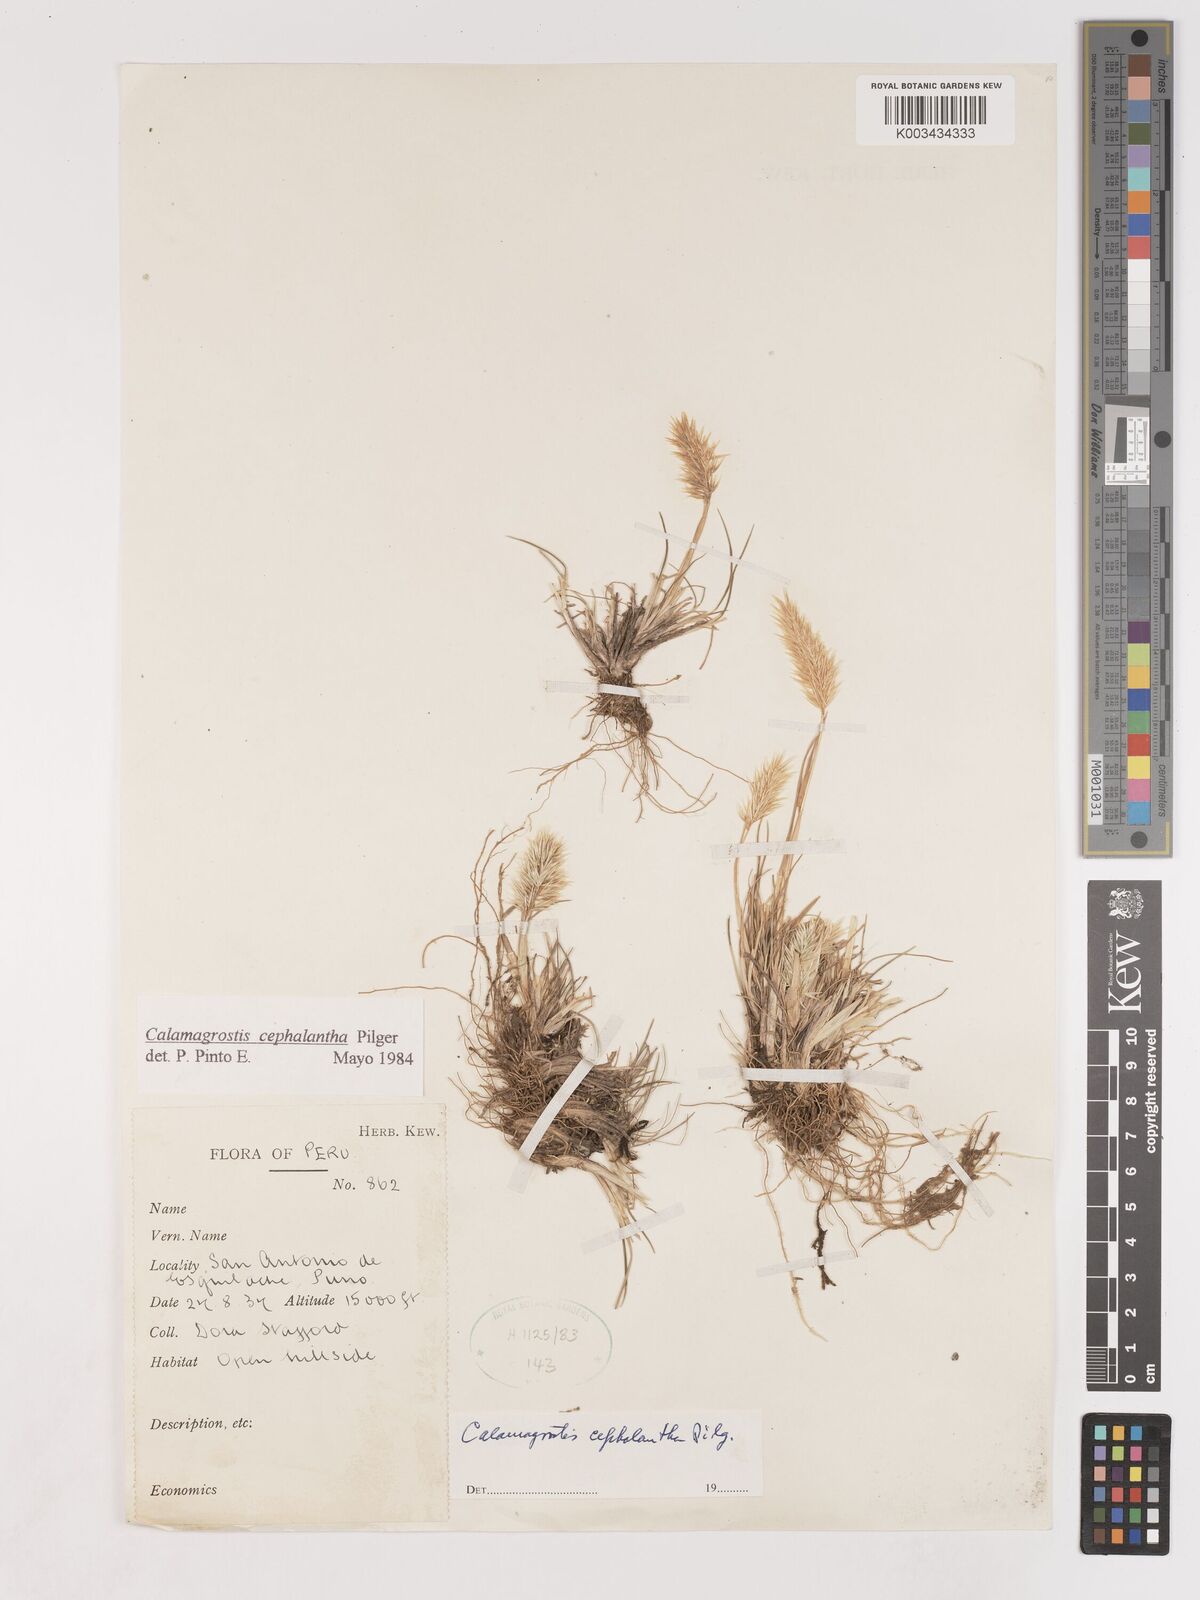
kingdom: Plantae
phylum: Tracheophyta
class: Liliopsida
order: Poales
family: Poaceae
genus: Calamagrostis
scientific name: Calamagrostis
